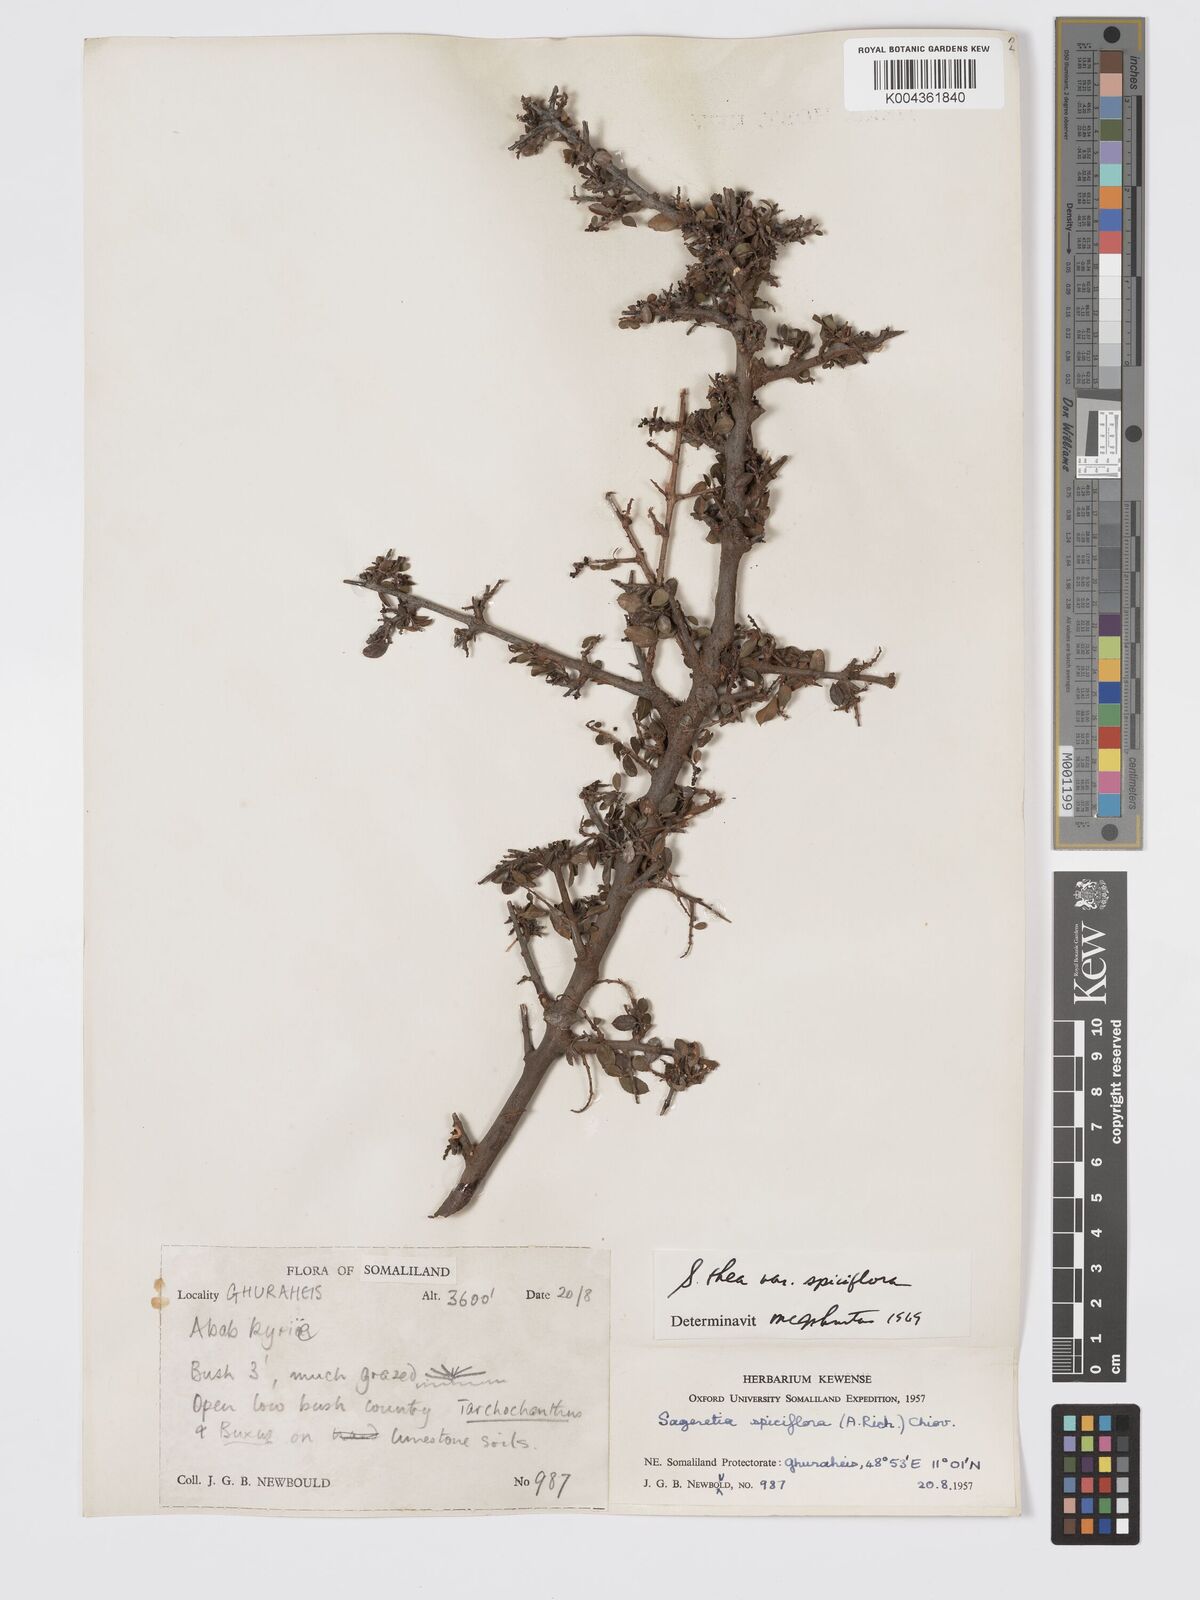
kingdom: Plantae
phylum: Tracheophyta
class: Magnoliopsida
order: Rosales
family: Rhamnaceae
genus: Sageretia
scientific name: Sageretia thea
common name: Pauper's-tea
